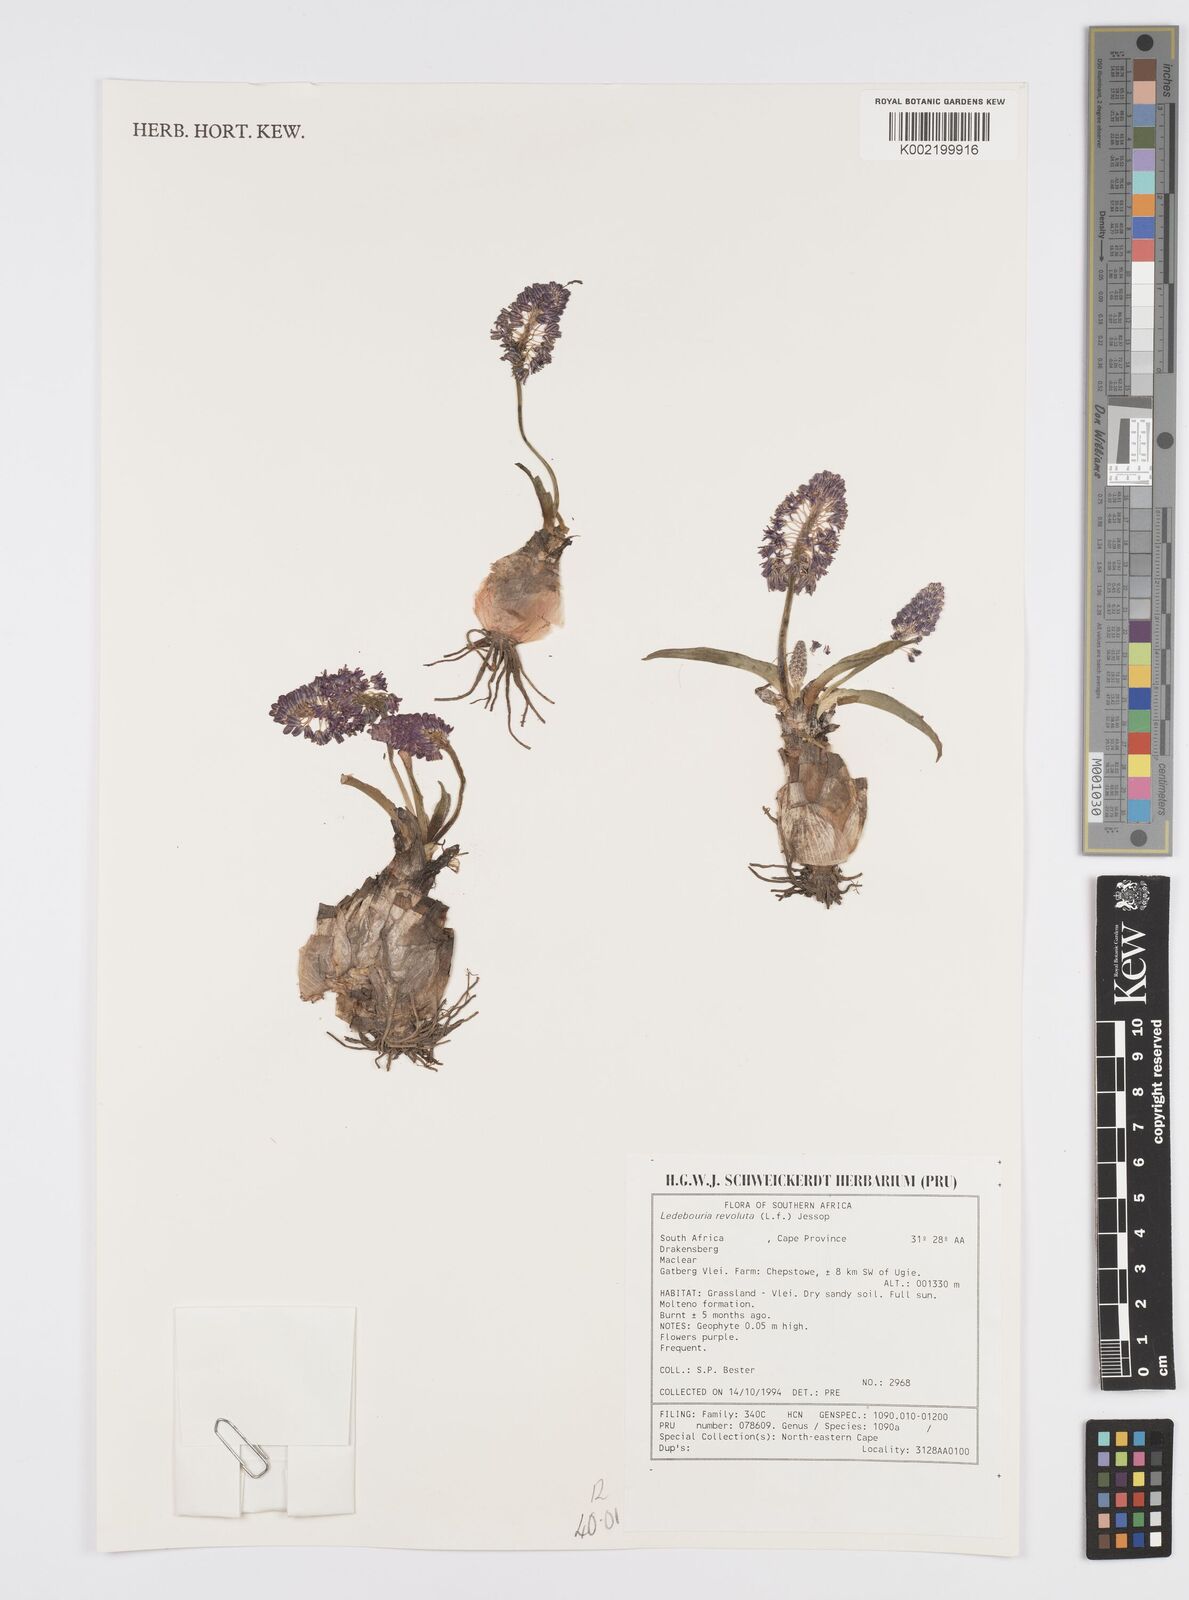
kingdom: Plantae
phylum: Tracheophyta
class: Liliopsida
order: Asparagales
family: Asparagaceae
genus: Ledebouria
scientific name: Ledebouria revoluta
